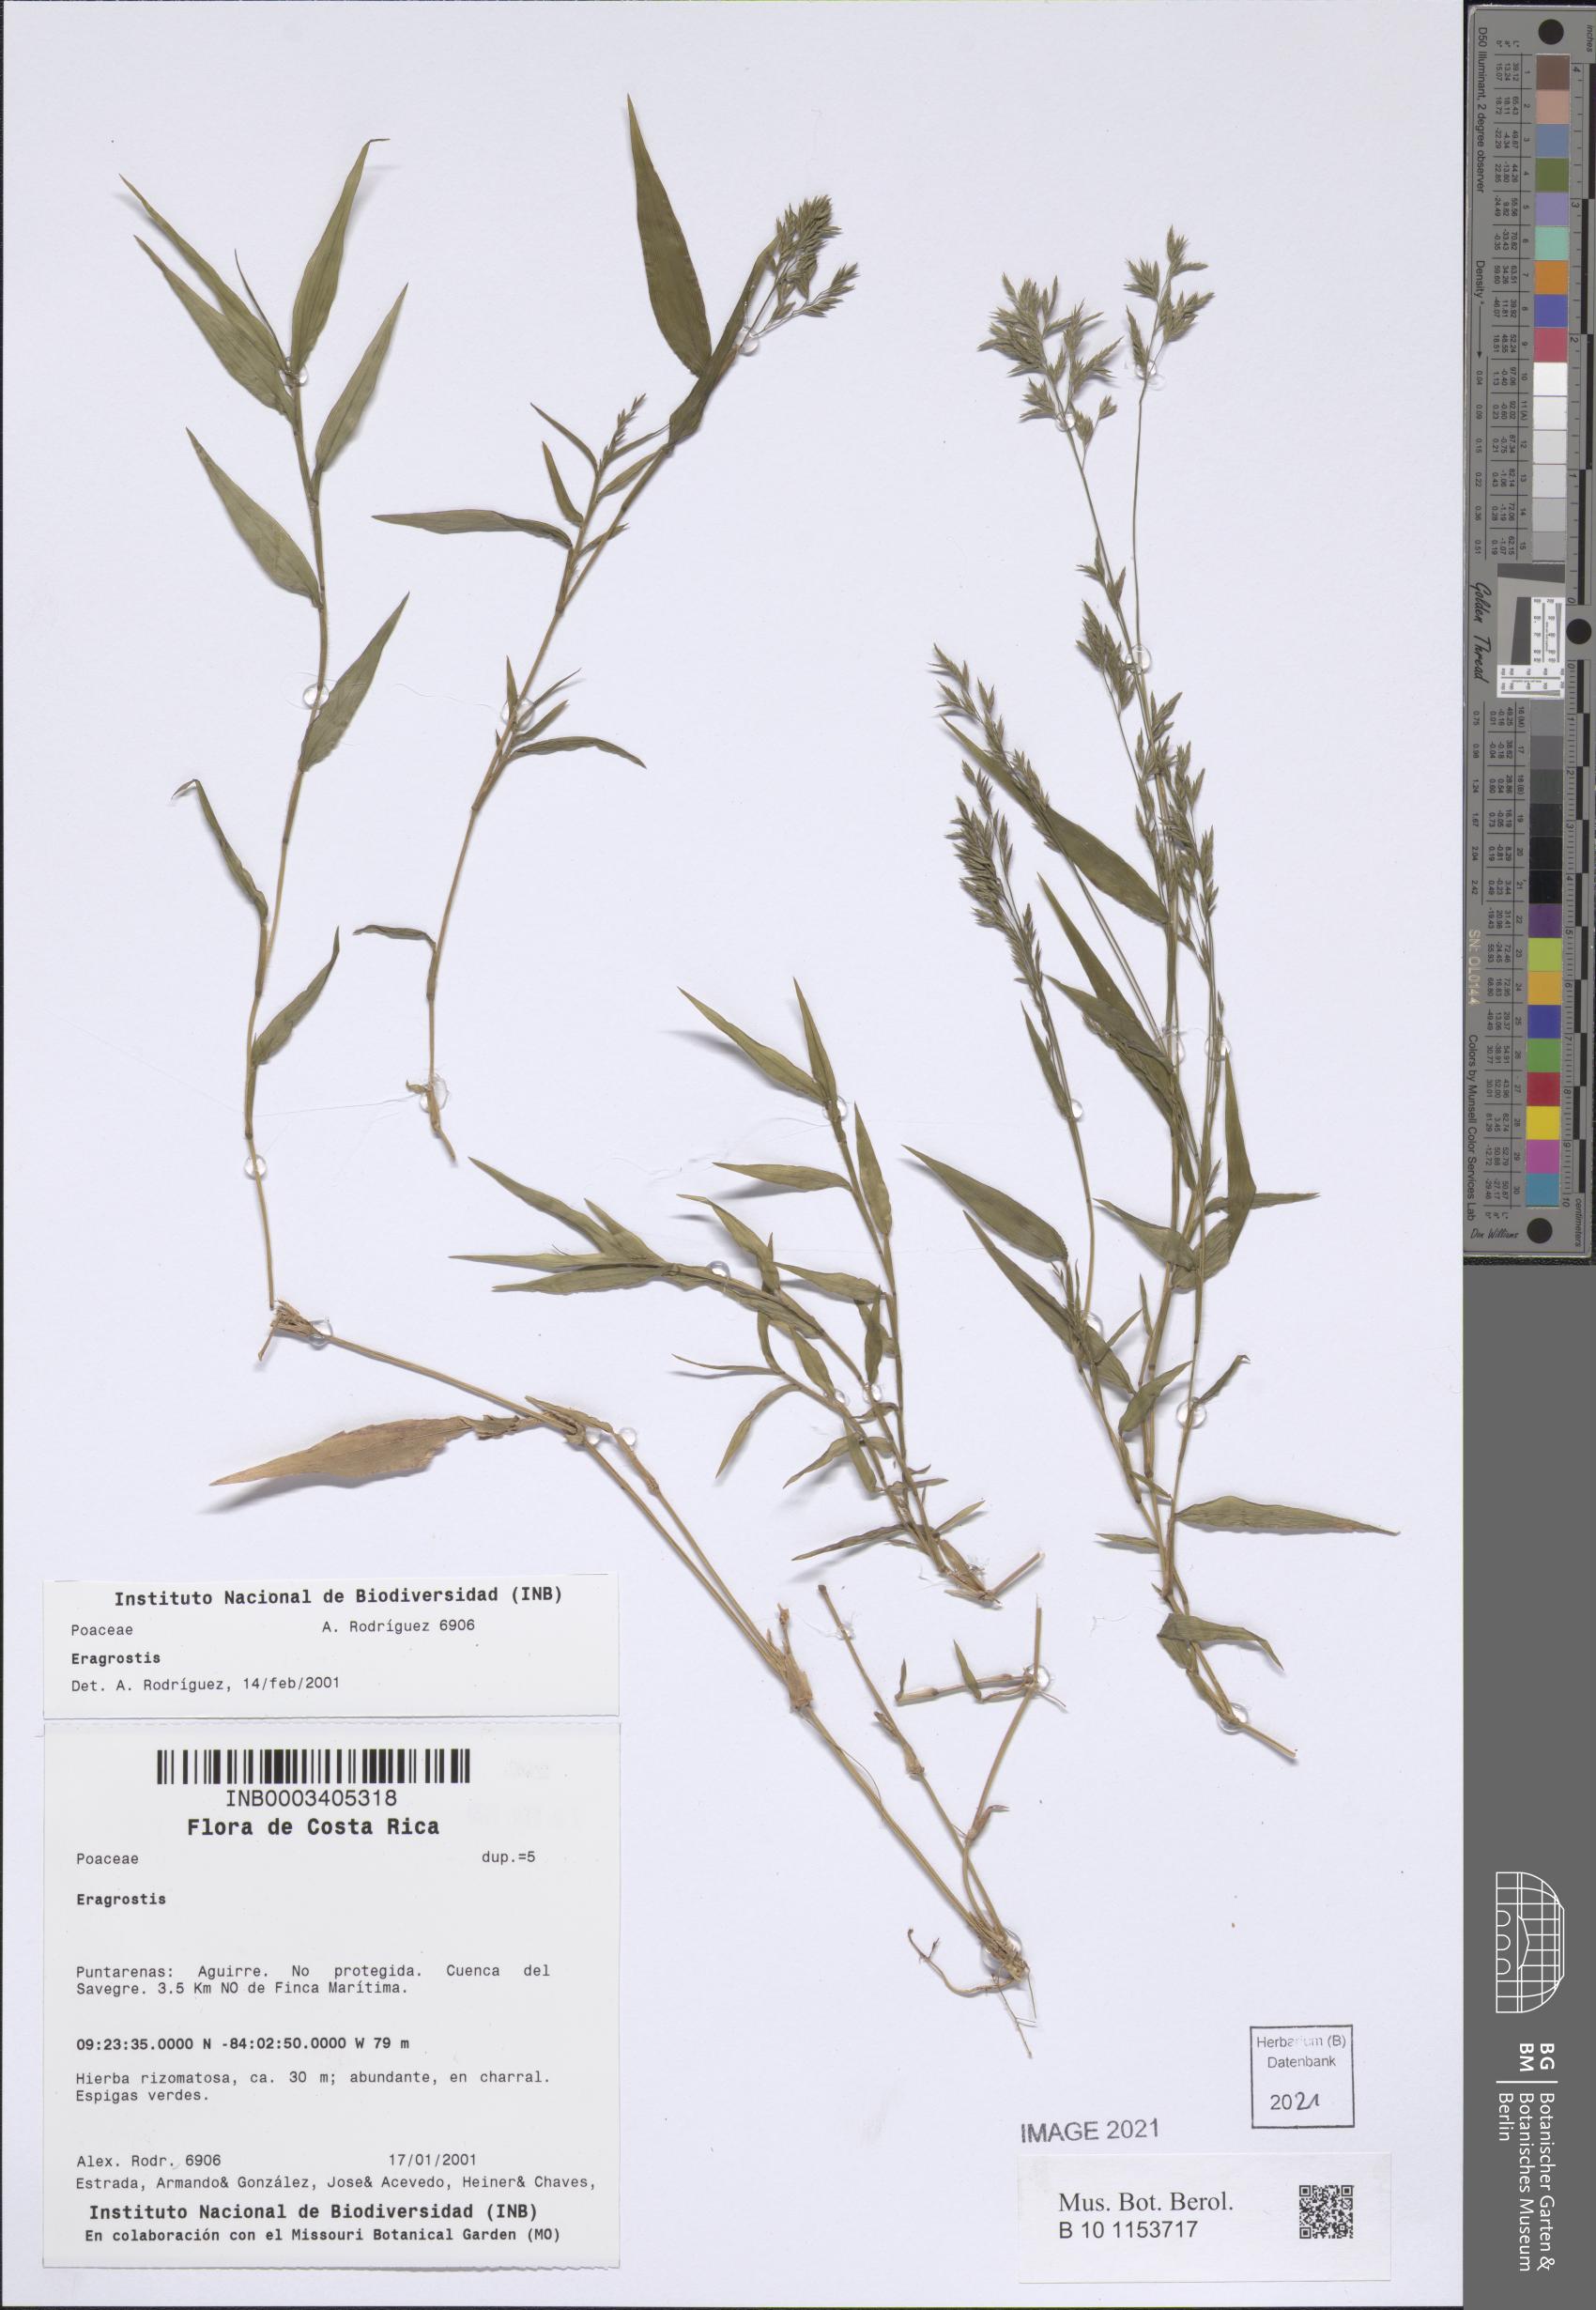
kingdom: Plantae
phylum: Tracheophyta
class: Liliopsida
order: Poales
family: Poaceae
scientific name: Poaceae
